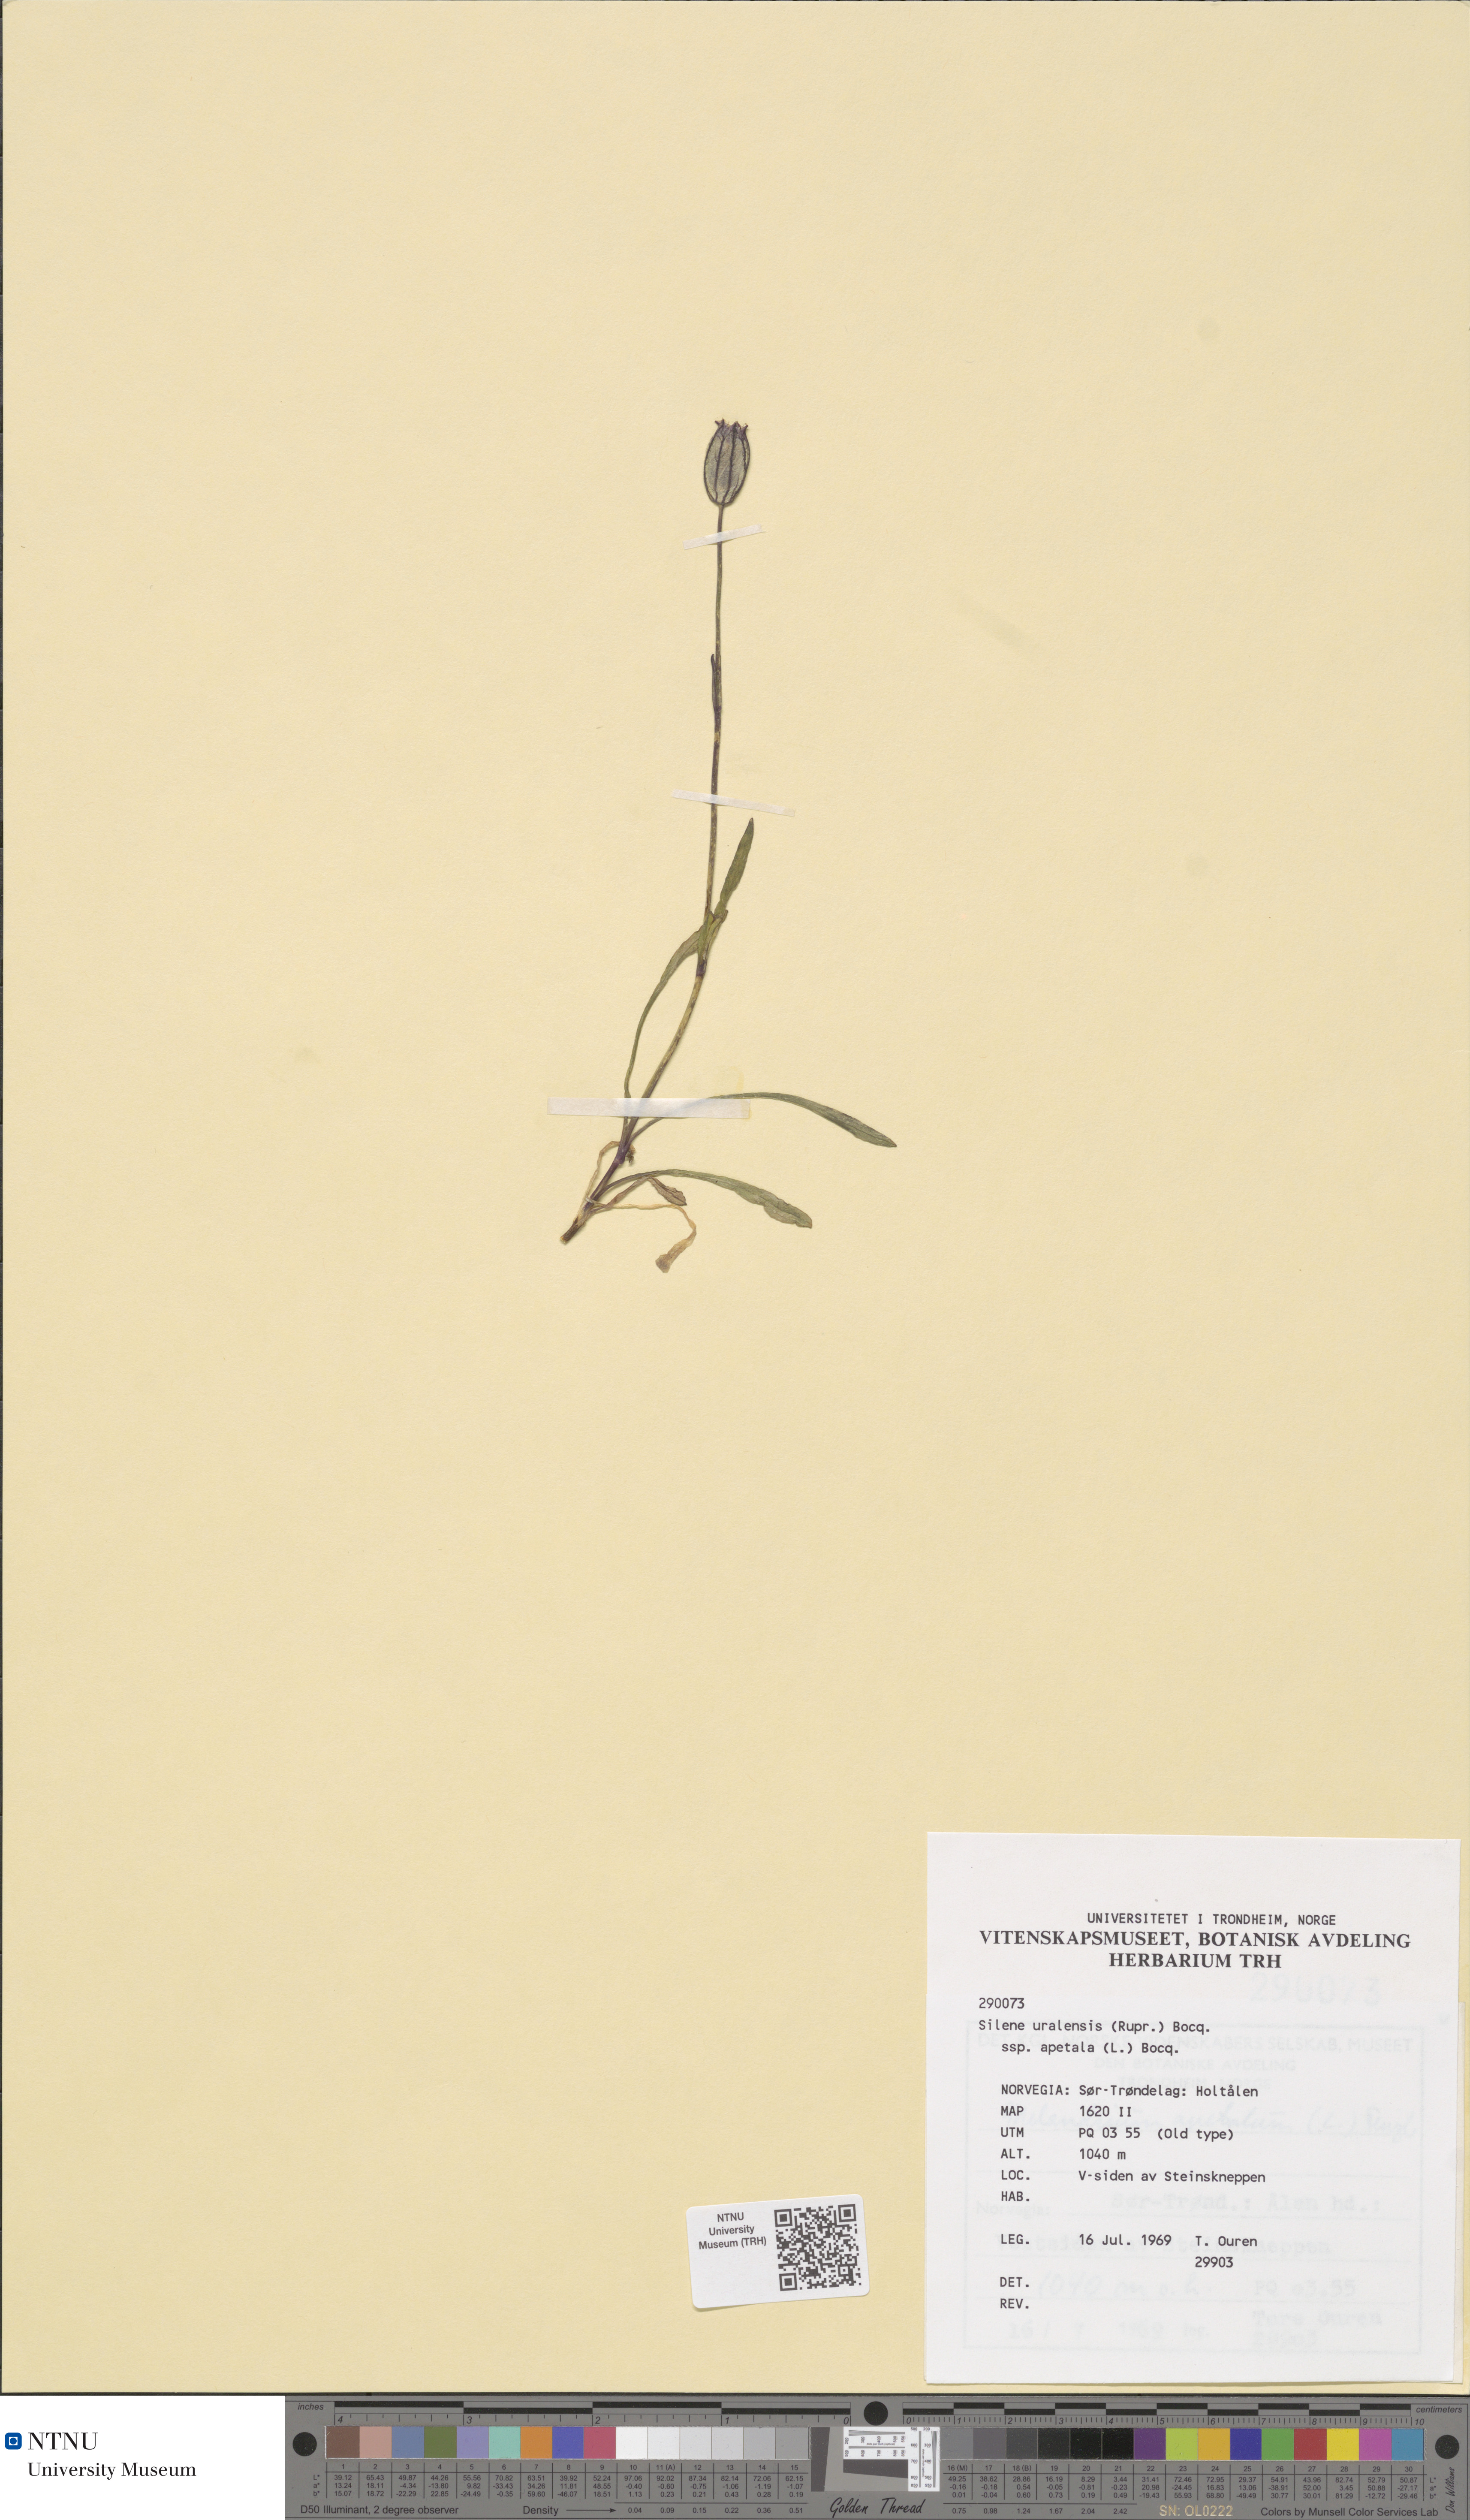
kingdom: Plantae
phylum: Tracheophyta
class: Magnoliopsida
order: Caryophyllales
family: Caryophyllaceae
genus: Silene
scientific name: Silene wahlbergella
